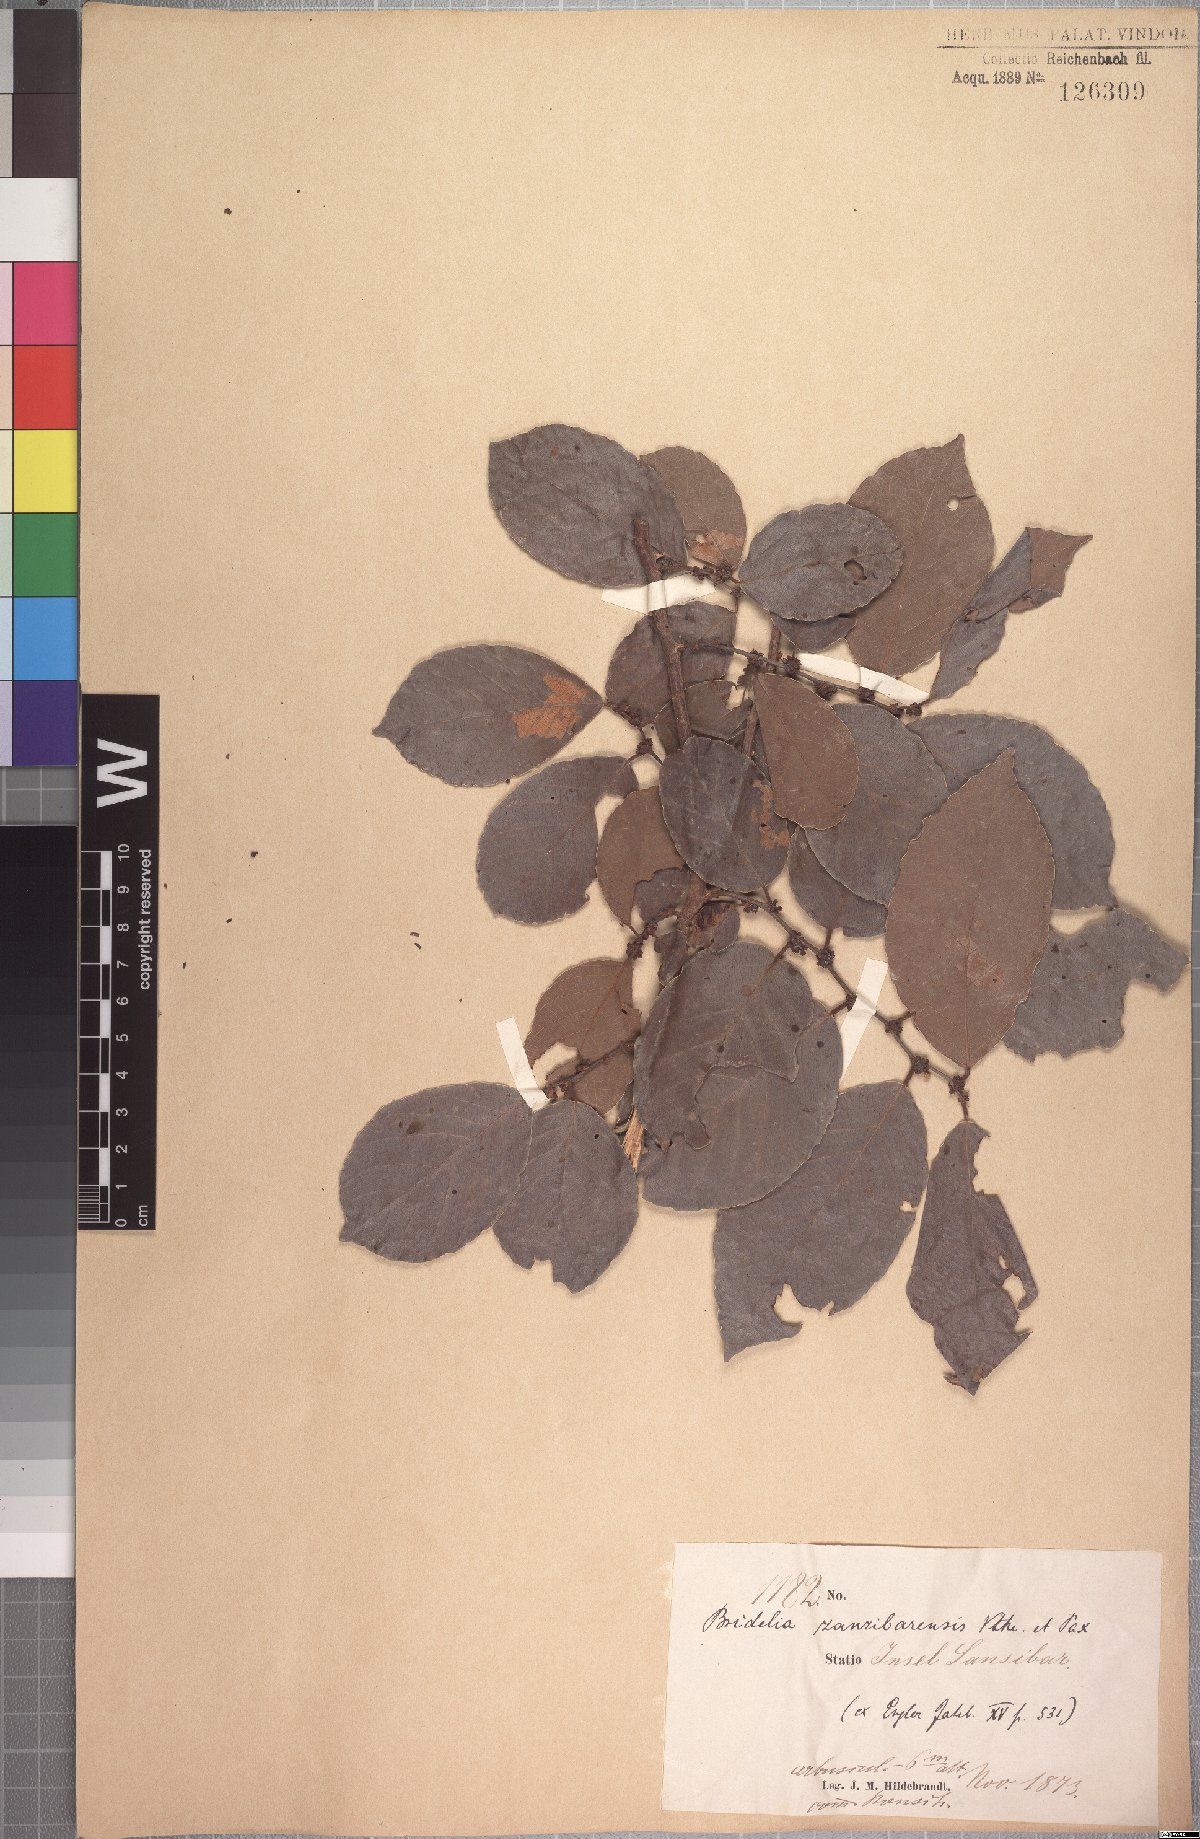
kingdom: Plantae
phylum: Tracheophyta
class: Magnoliopsida
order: Malpighiales
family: Phyllanthaceae
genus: Bridelia
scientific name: Bridelia micrantha
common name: Bridelia
